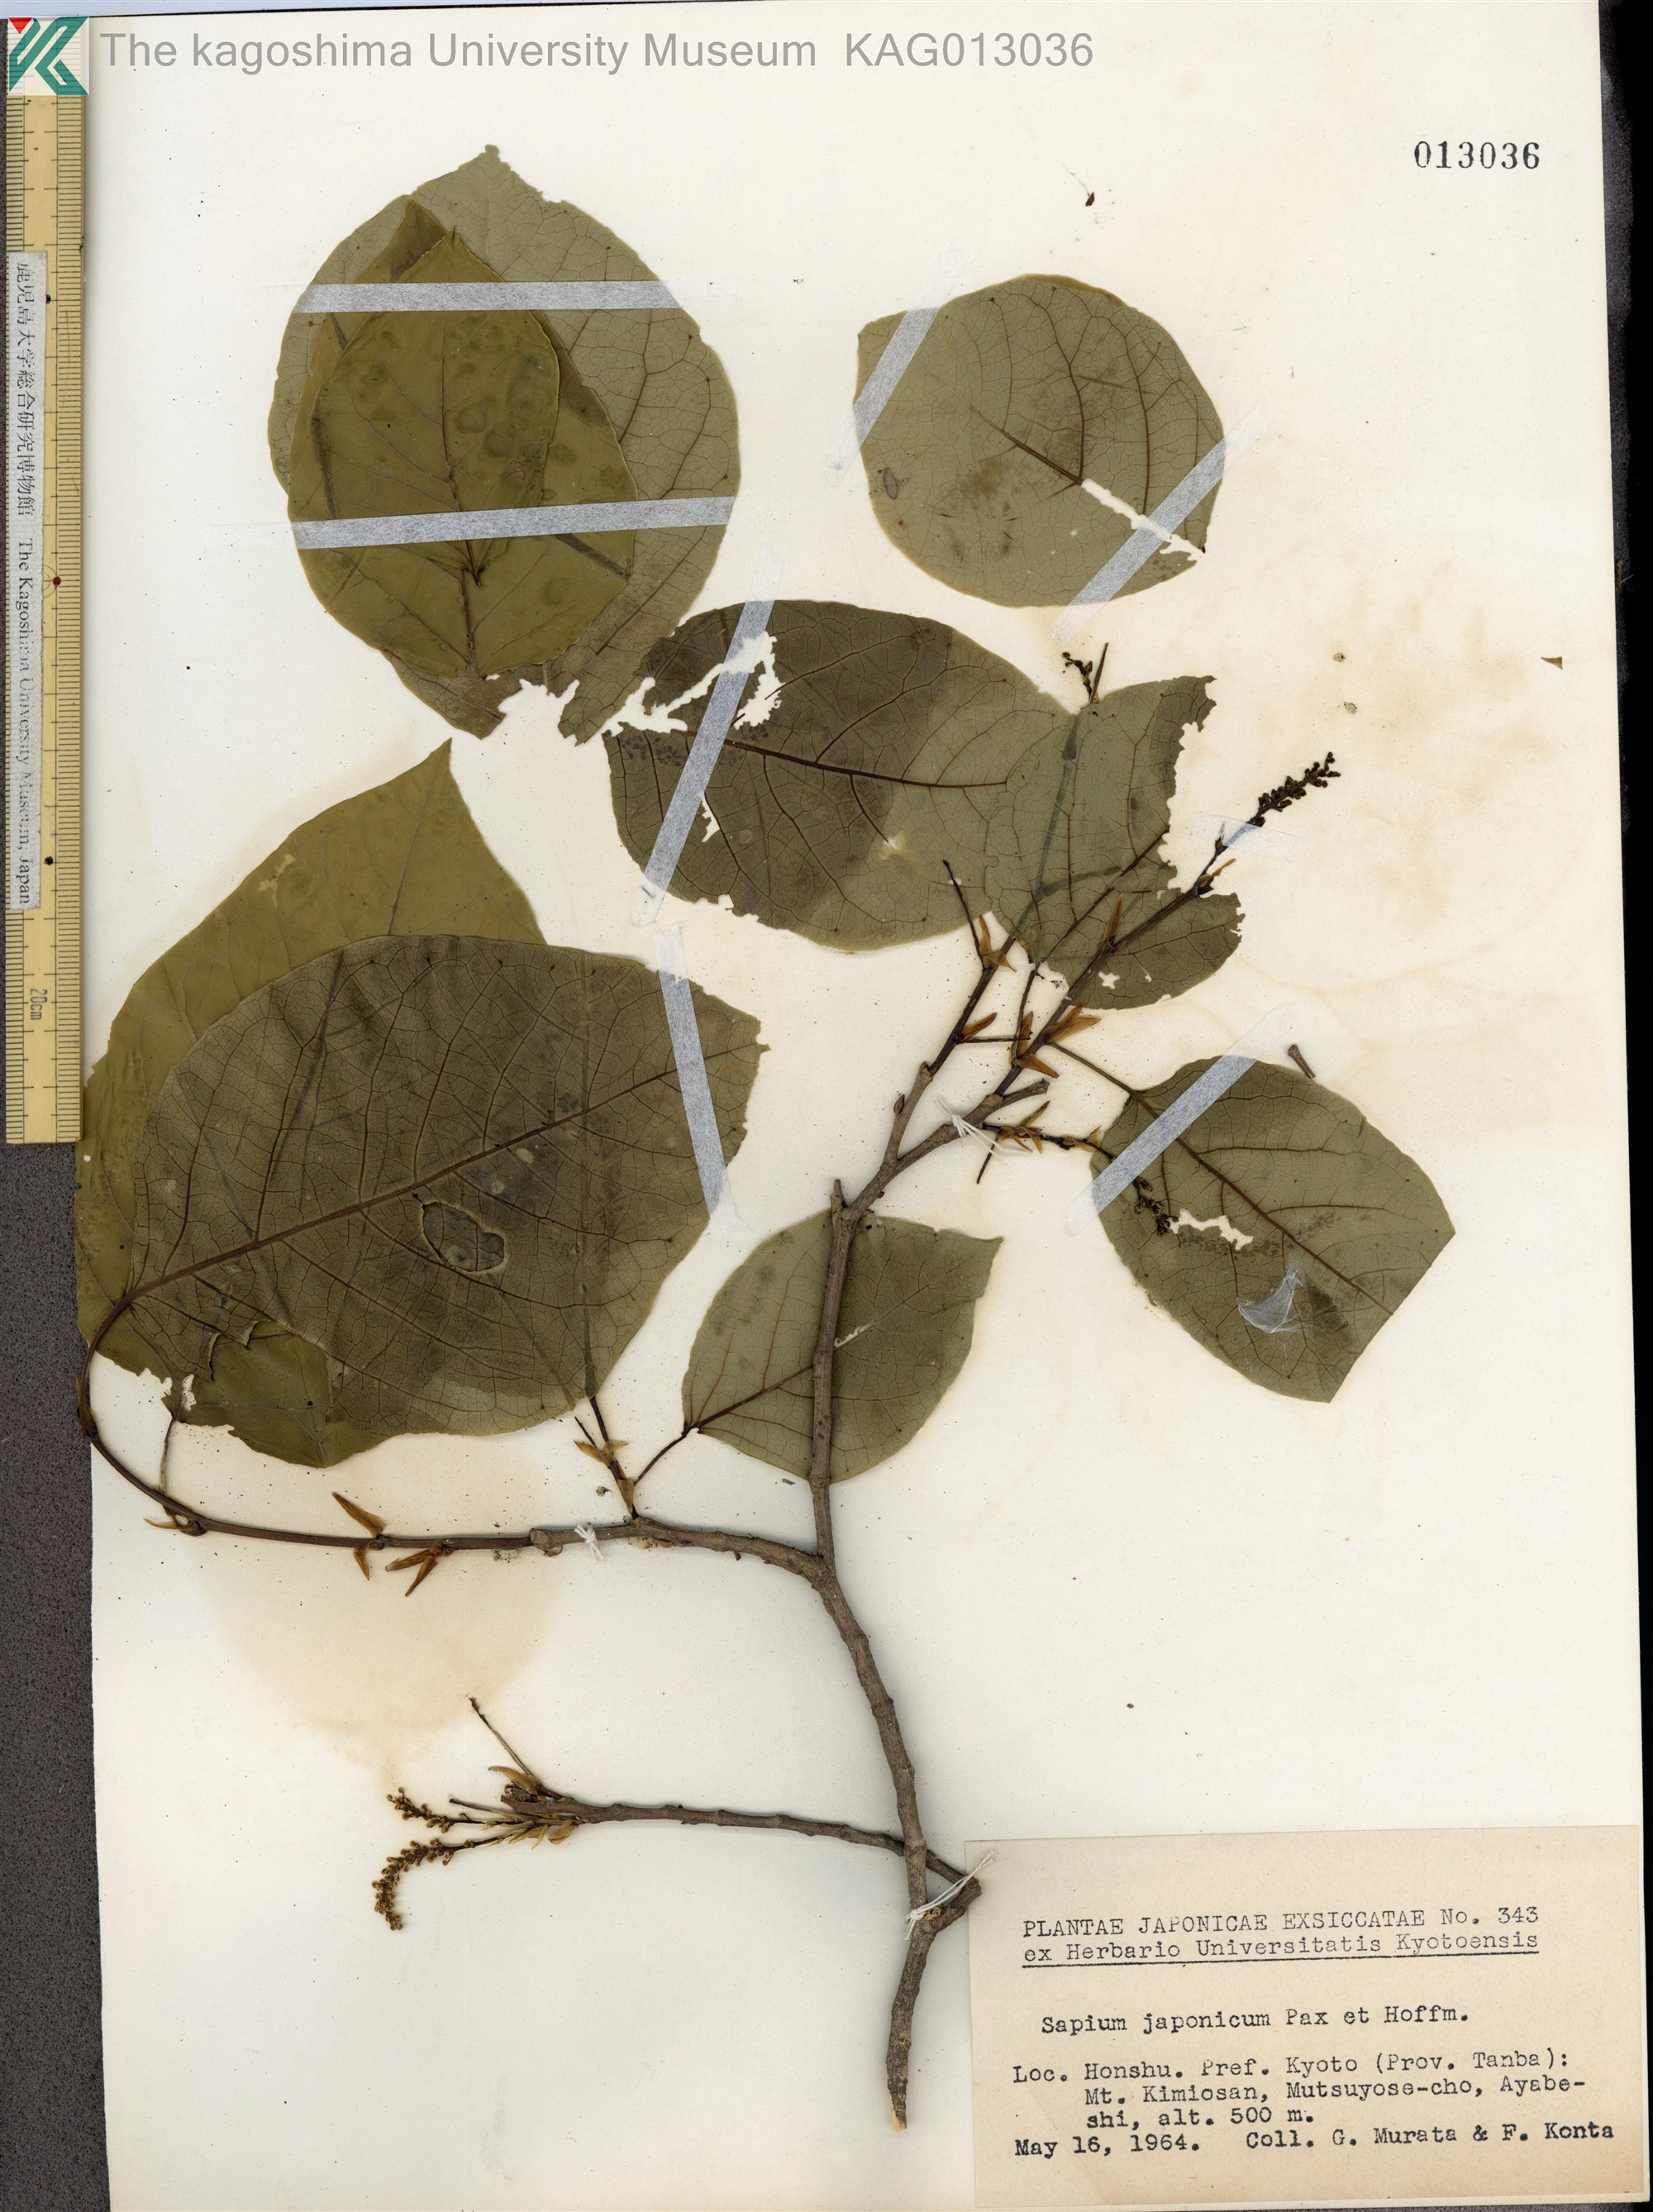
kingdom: Plantae
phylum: Tracheophyta
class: Magnoliopsida
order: Malpighiales
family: Euphorbiaceae
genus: Neoshirakia
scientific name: Neoshirakia japonica
